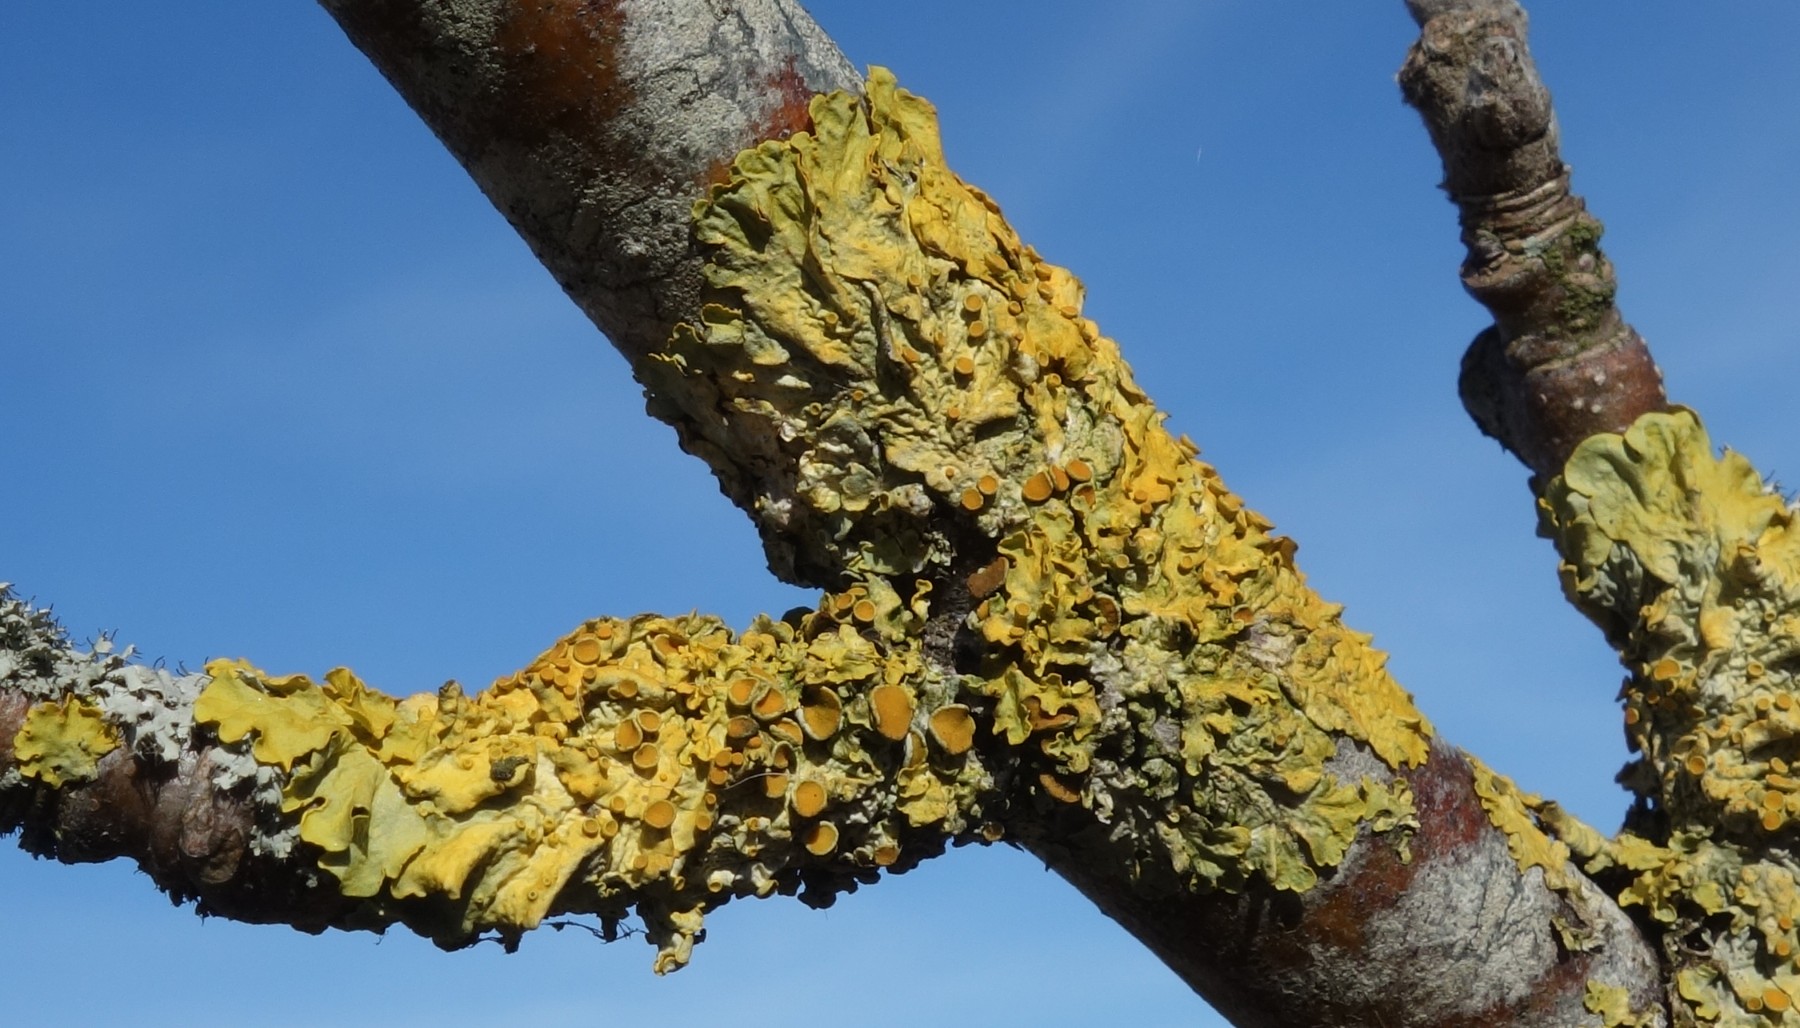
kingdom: Fungi
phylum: Ascomycota
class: Lecanoromycetes
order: Teloschistales
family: Teloschistaceae
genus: Xanthoria
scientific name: Xanthoria parietina
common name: almindelig væggelav
